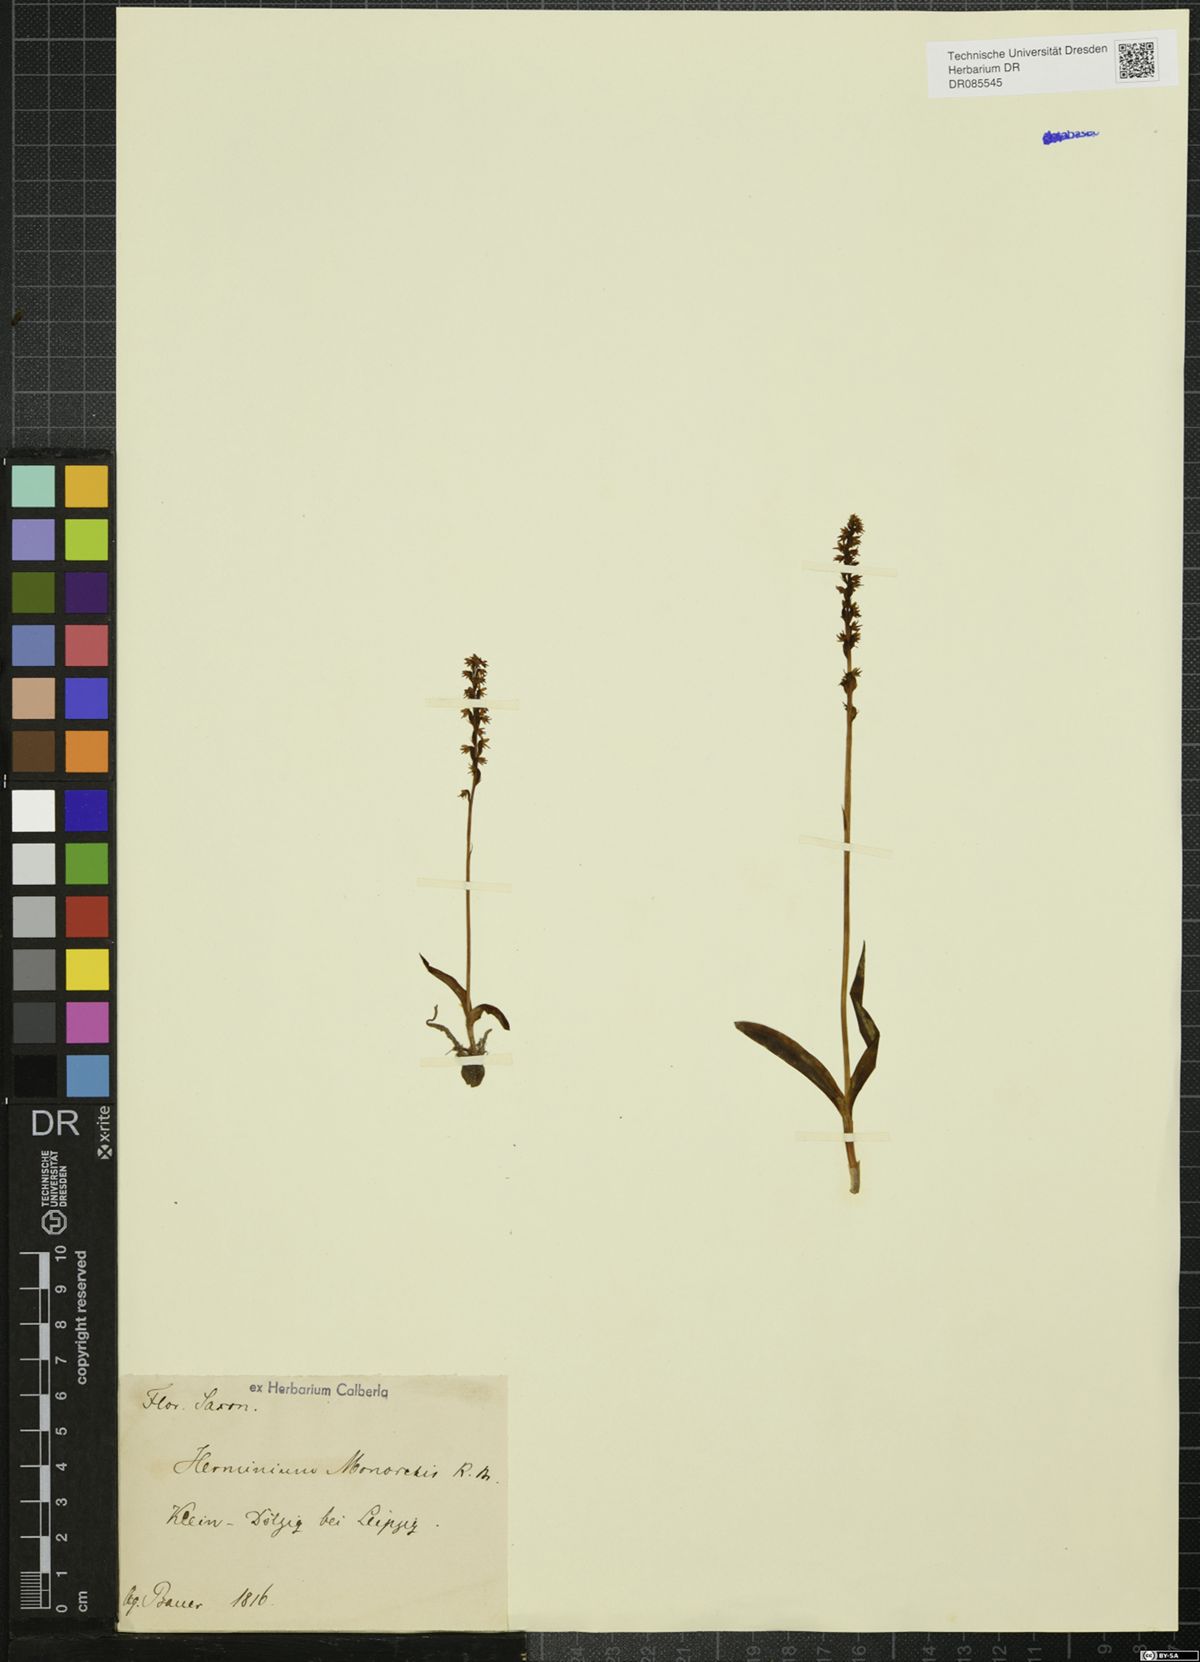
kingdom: Plantae
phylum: Tracheophyta
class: Liliopsida
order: Asparagales
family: Orchidaceae
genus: Herminium
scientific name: Herminium monorchis
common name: Musk orchid
